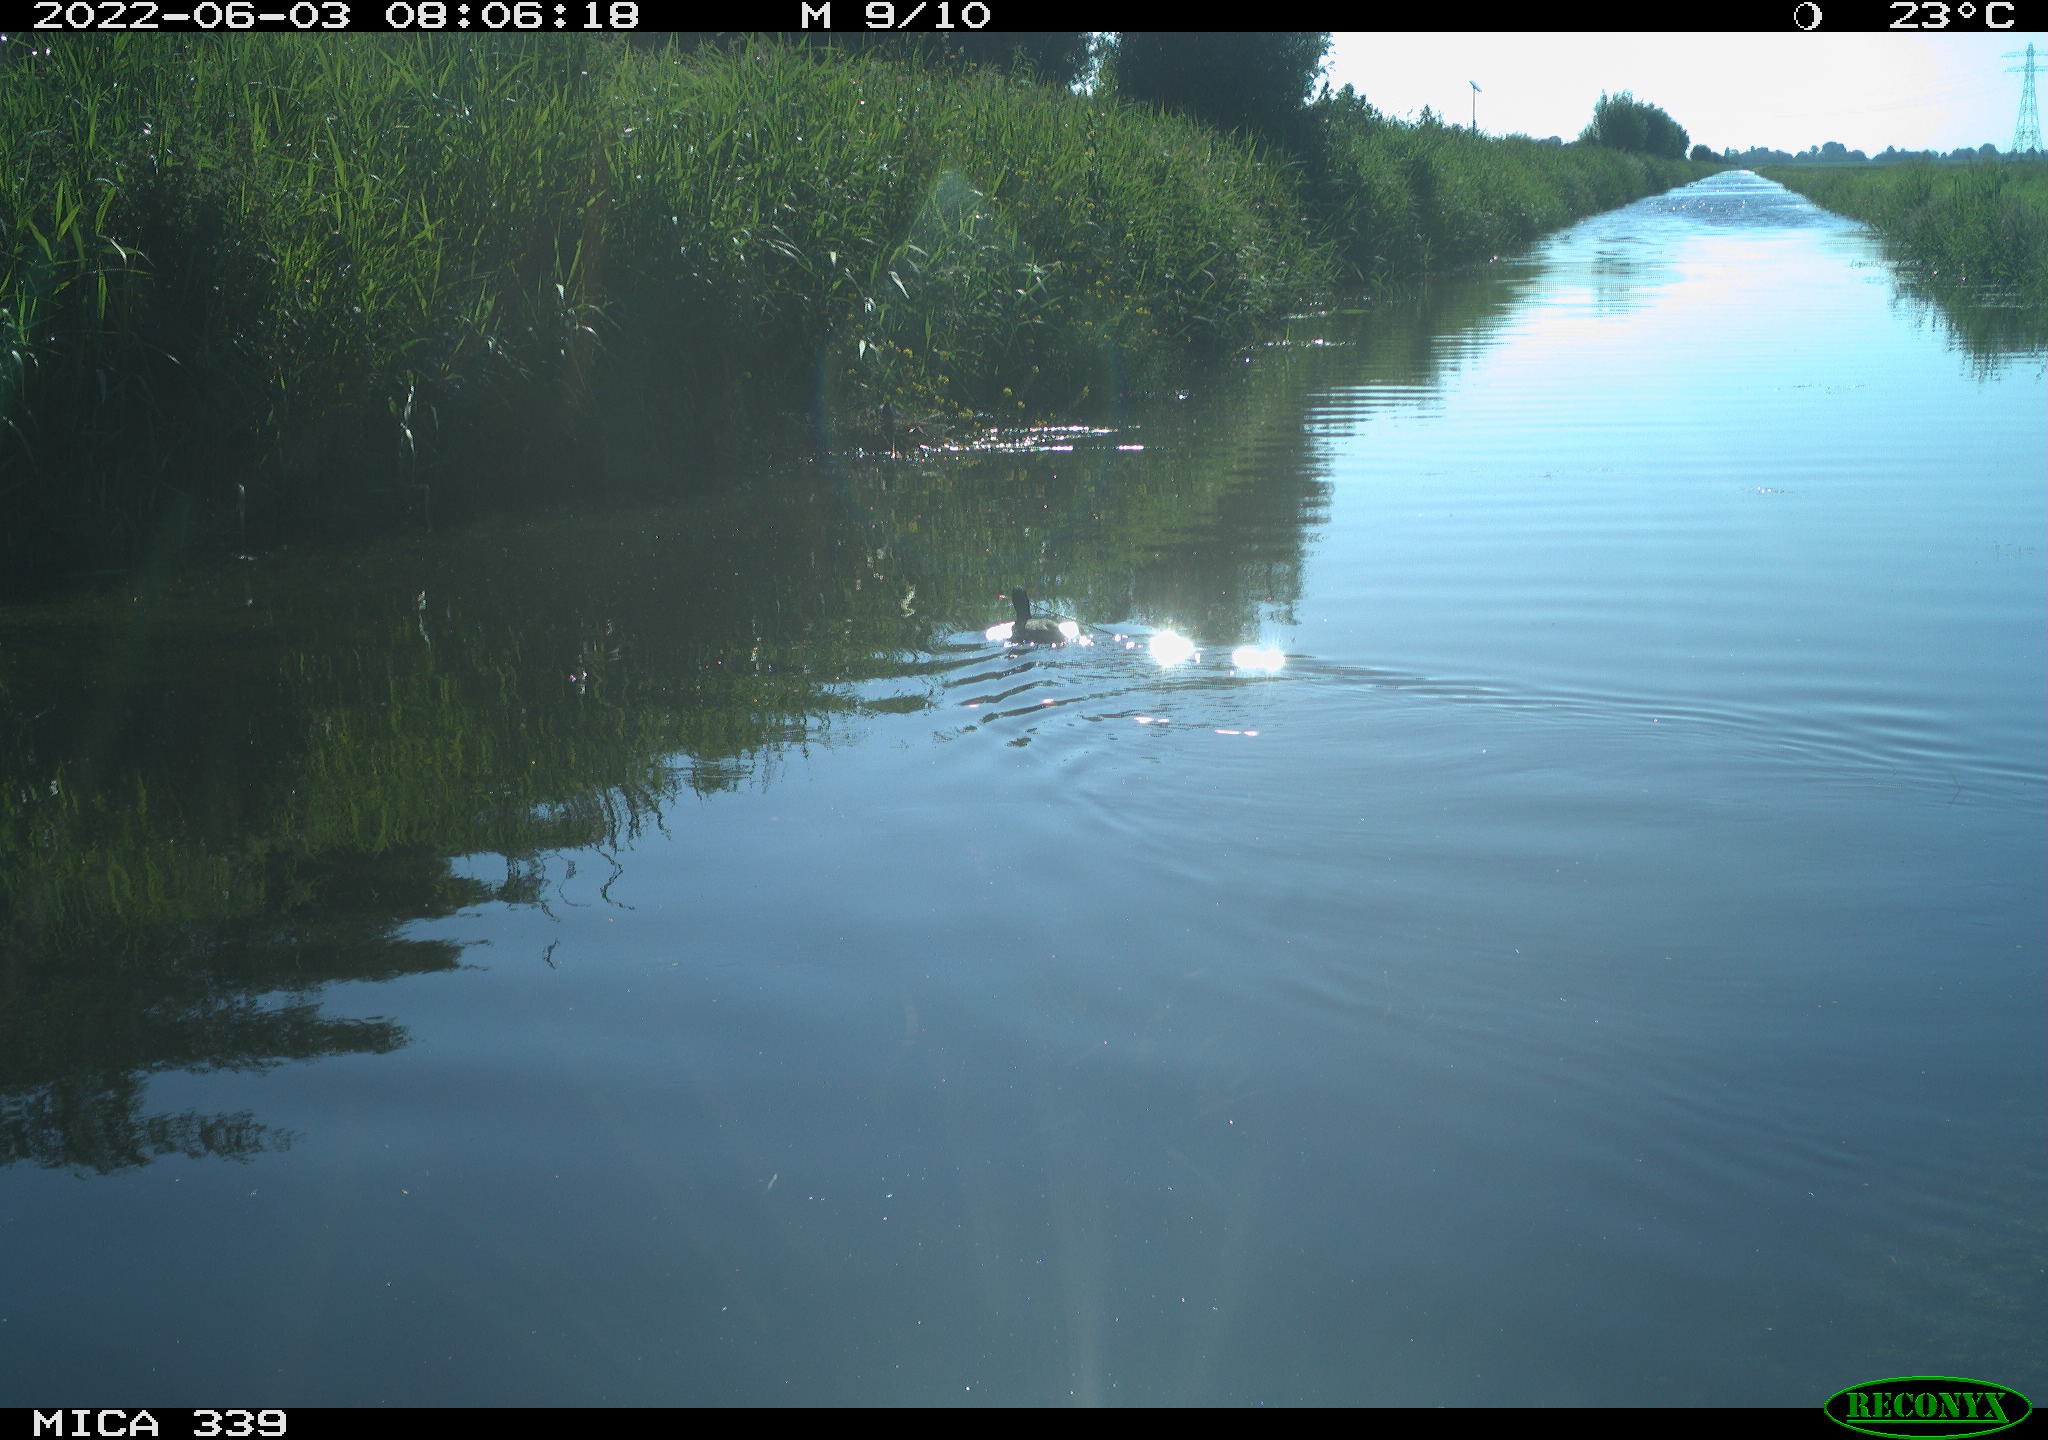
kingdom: Animalia
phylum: Chordata
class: Aves
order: Gruiformes
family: Rallidae
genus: Fulica
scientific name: Fulica atra
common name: Eurasian coot
